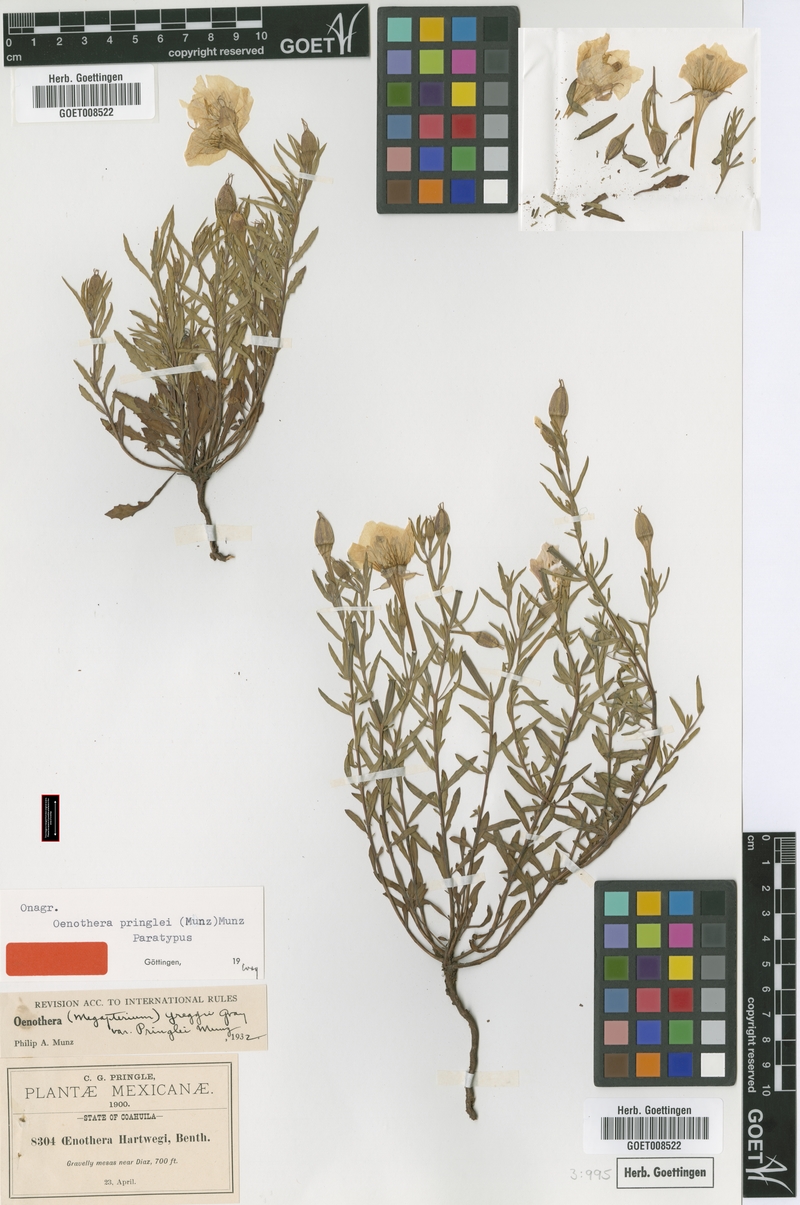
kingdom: Plantae
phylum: Tracheophyta
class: Magnoliopsida
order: Myrtales
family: Onagraceae
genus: Oenothera
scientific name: Oenothera hartwegii
